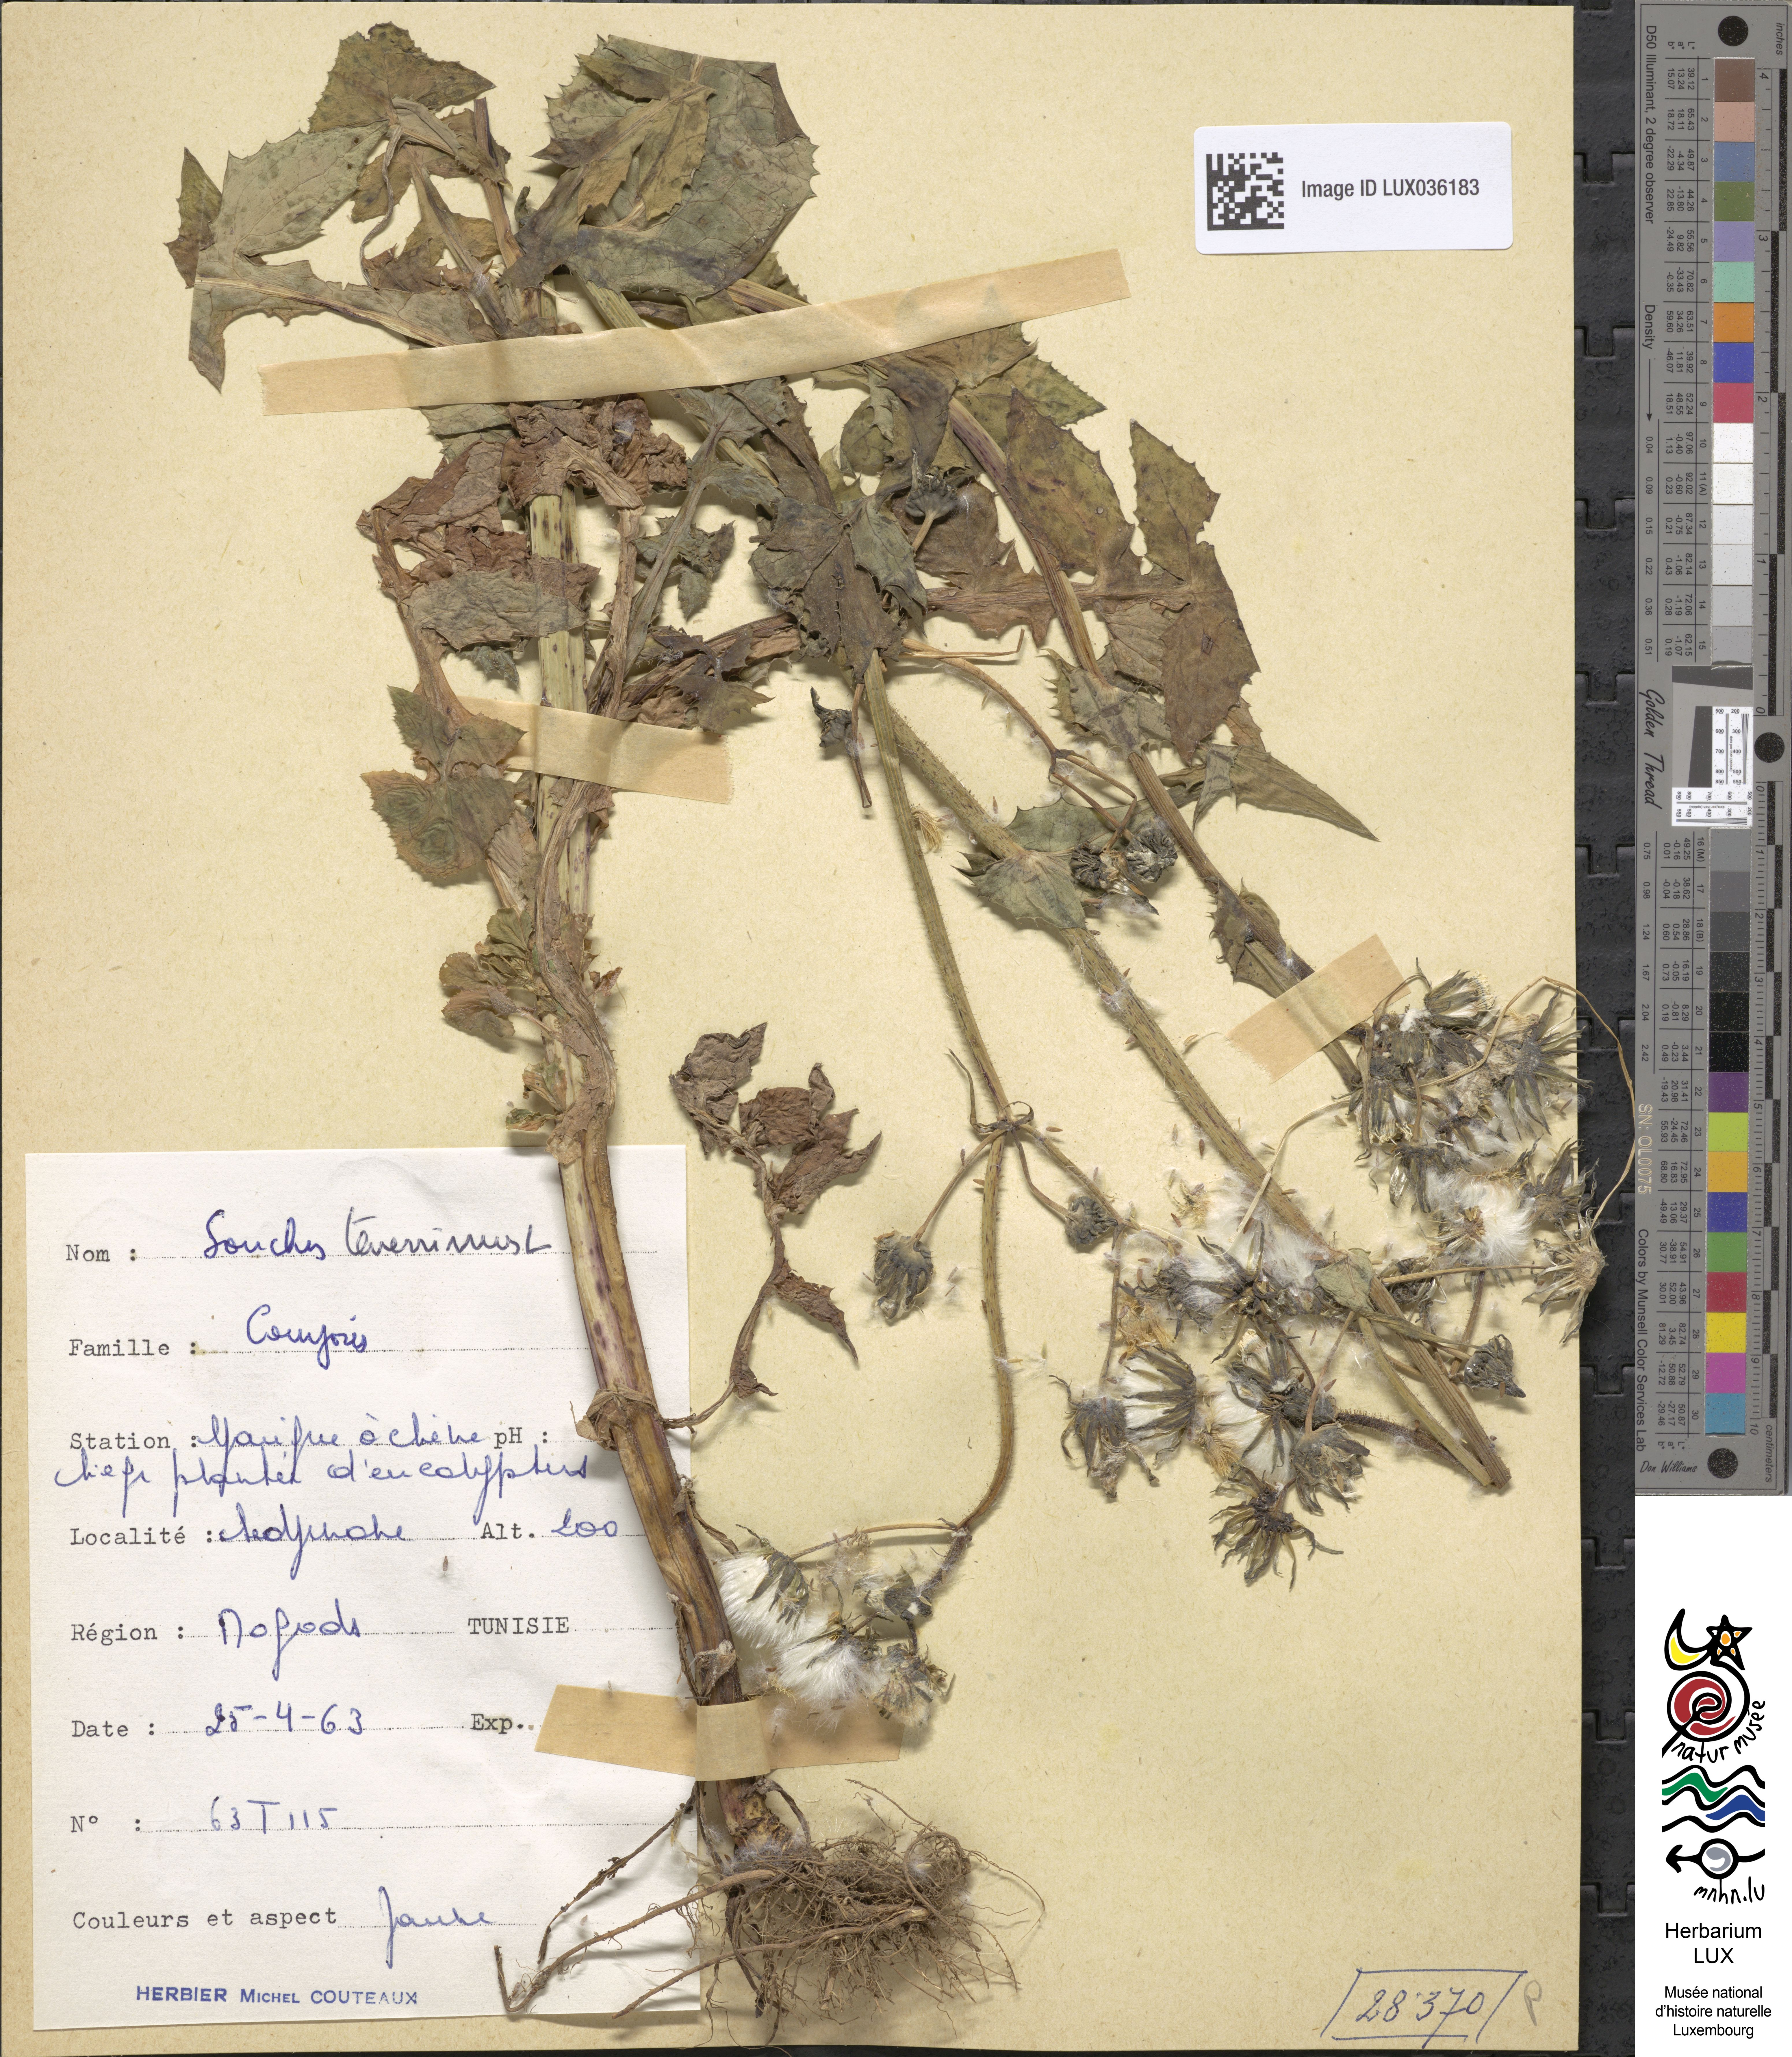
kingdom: Plantae
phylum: Tracheophyta
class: Magnoliopsida
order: Asterales
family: Asteraceae
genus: Sonchus
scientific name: Sonchus tenerrimus
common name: Clammy sowthistle
